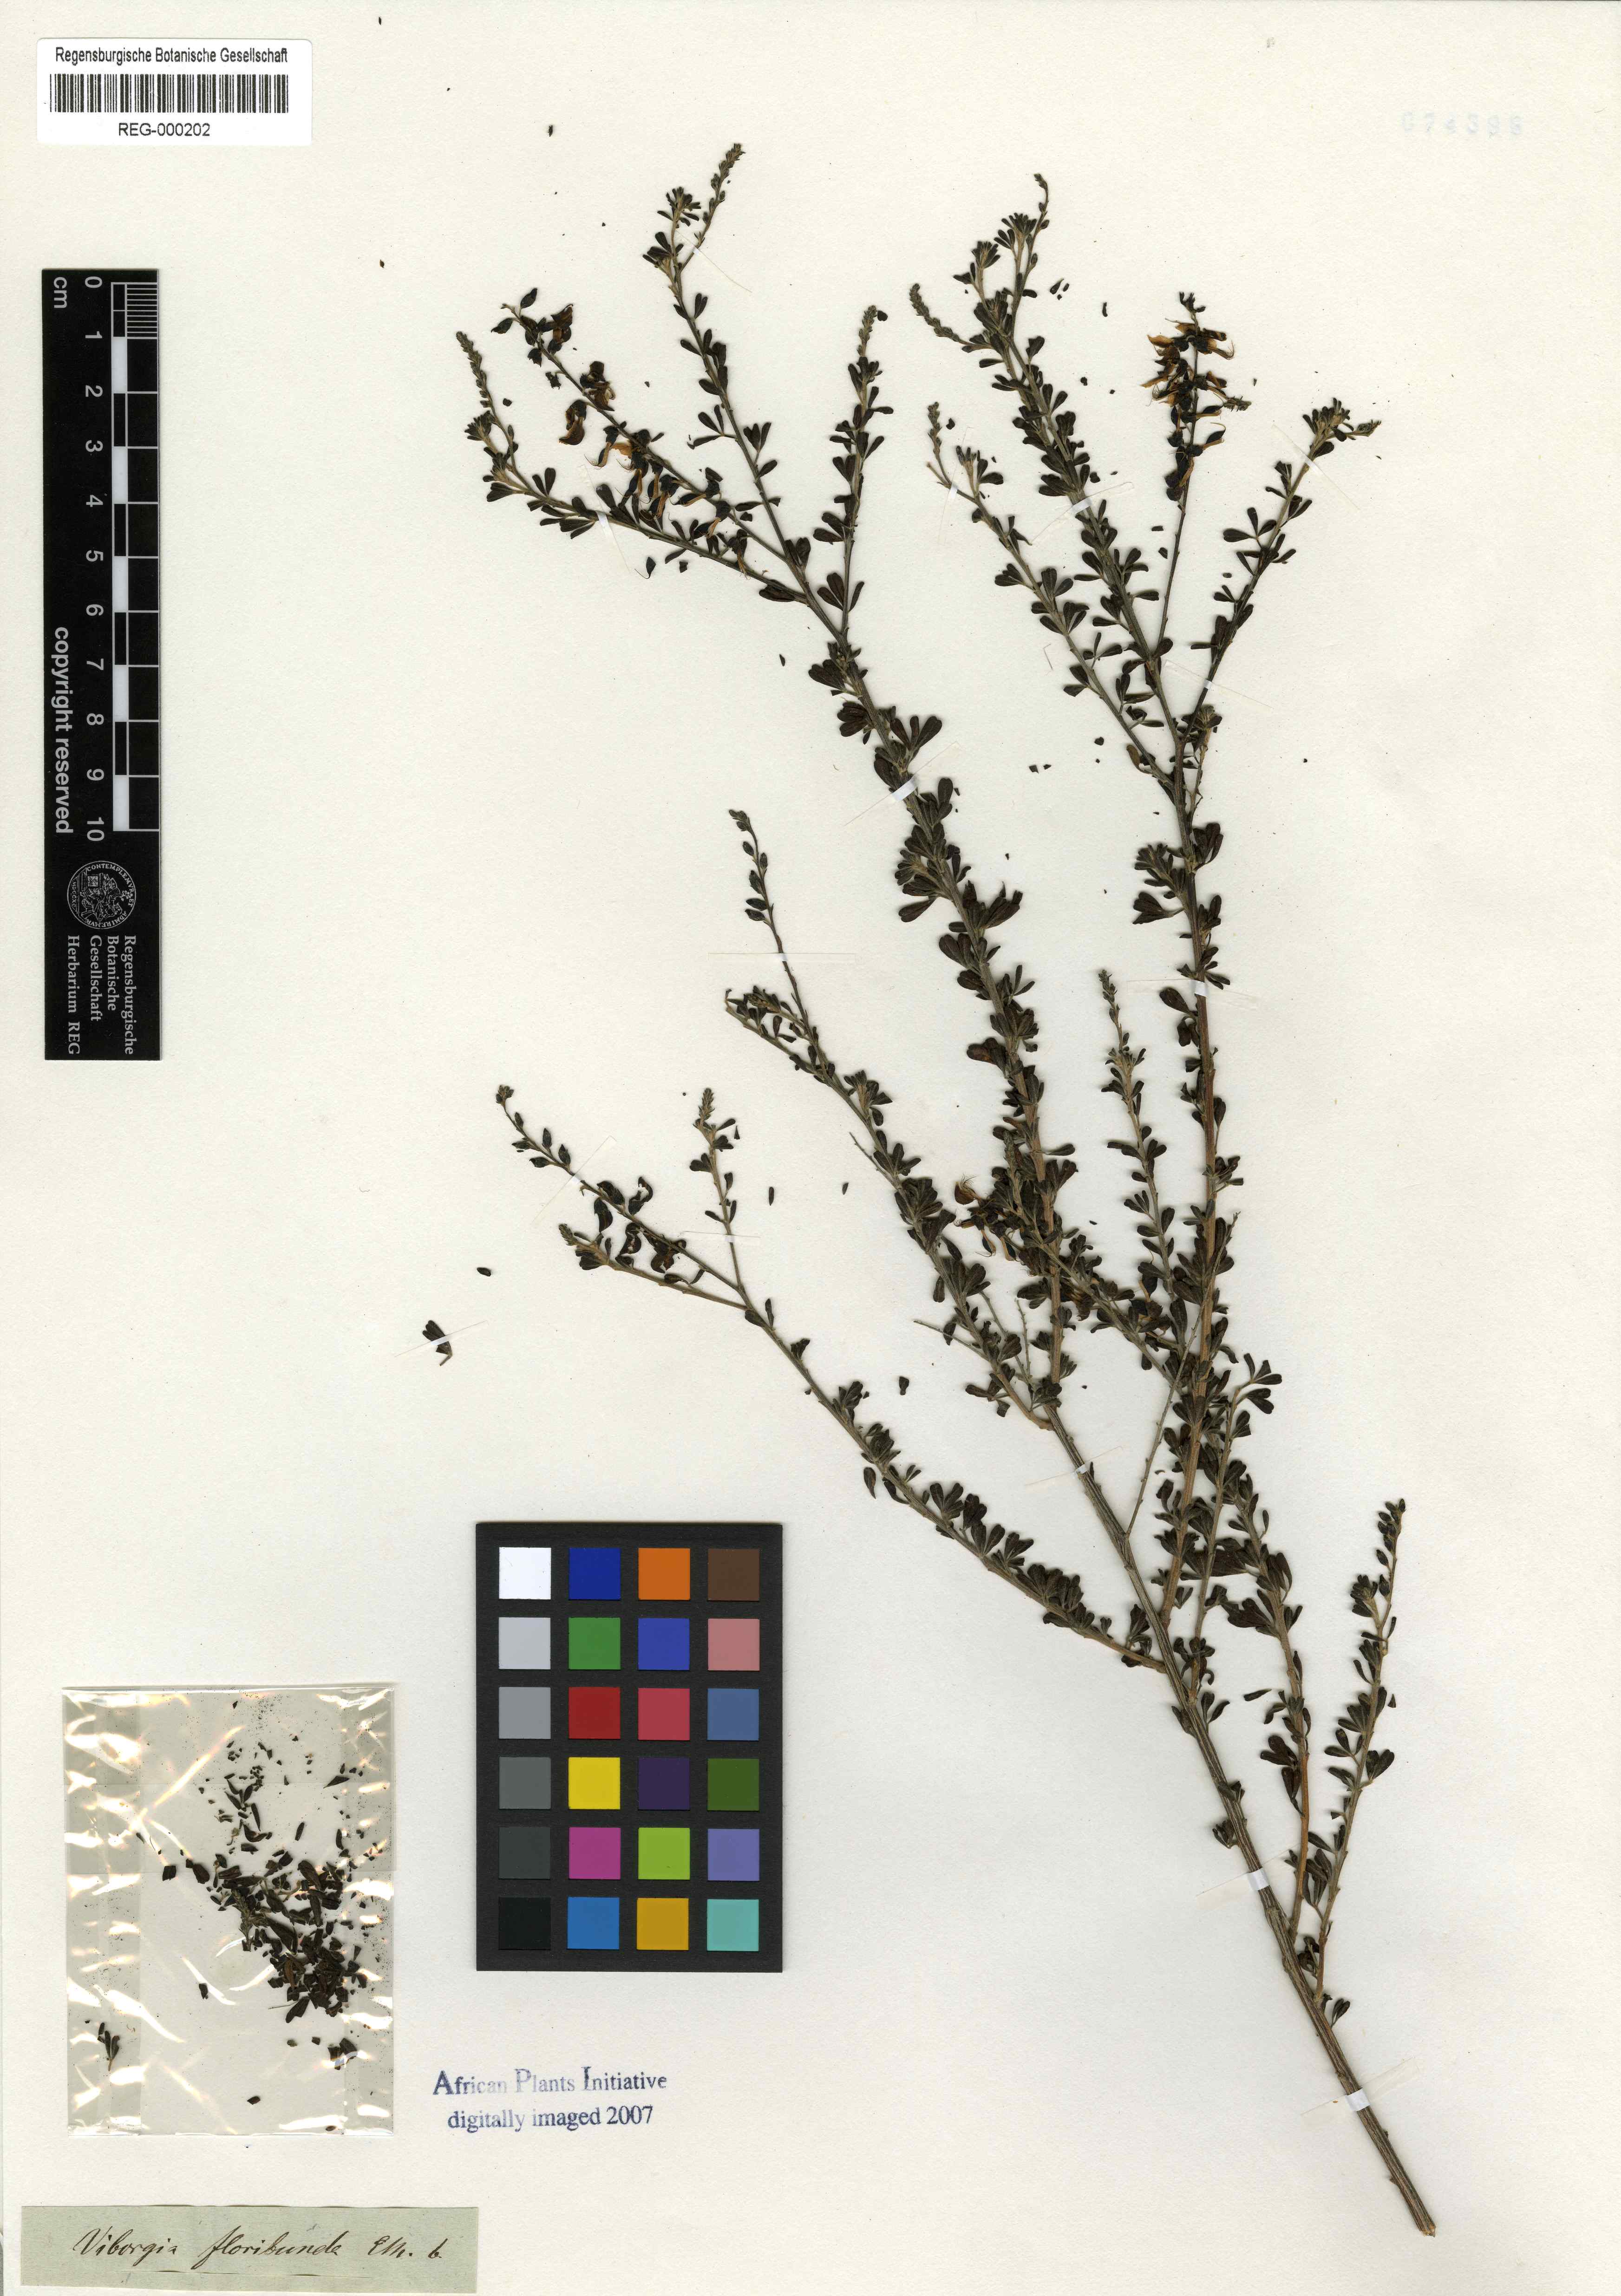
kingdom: Plantae
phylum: Tracheophyta
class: Magnoliopsida
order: Fabales
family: Fabaceae
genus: Wiborgia
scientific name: Wiborgia obcordata
